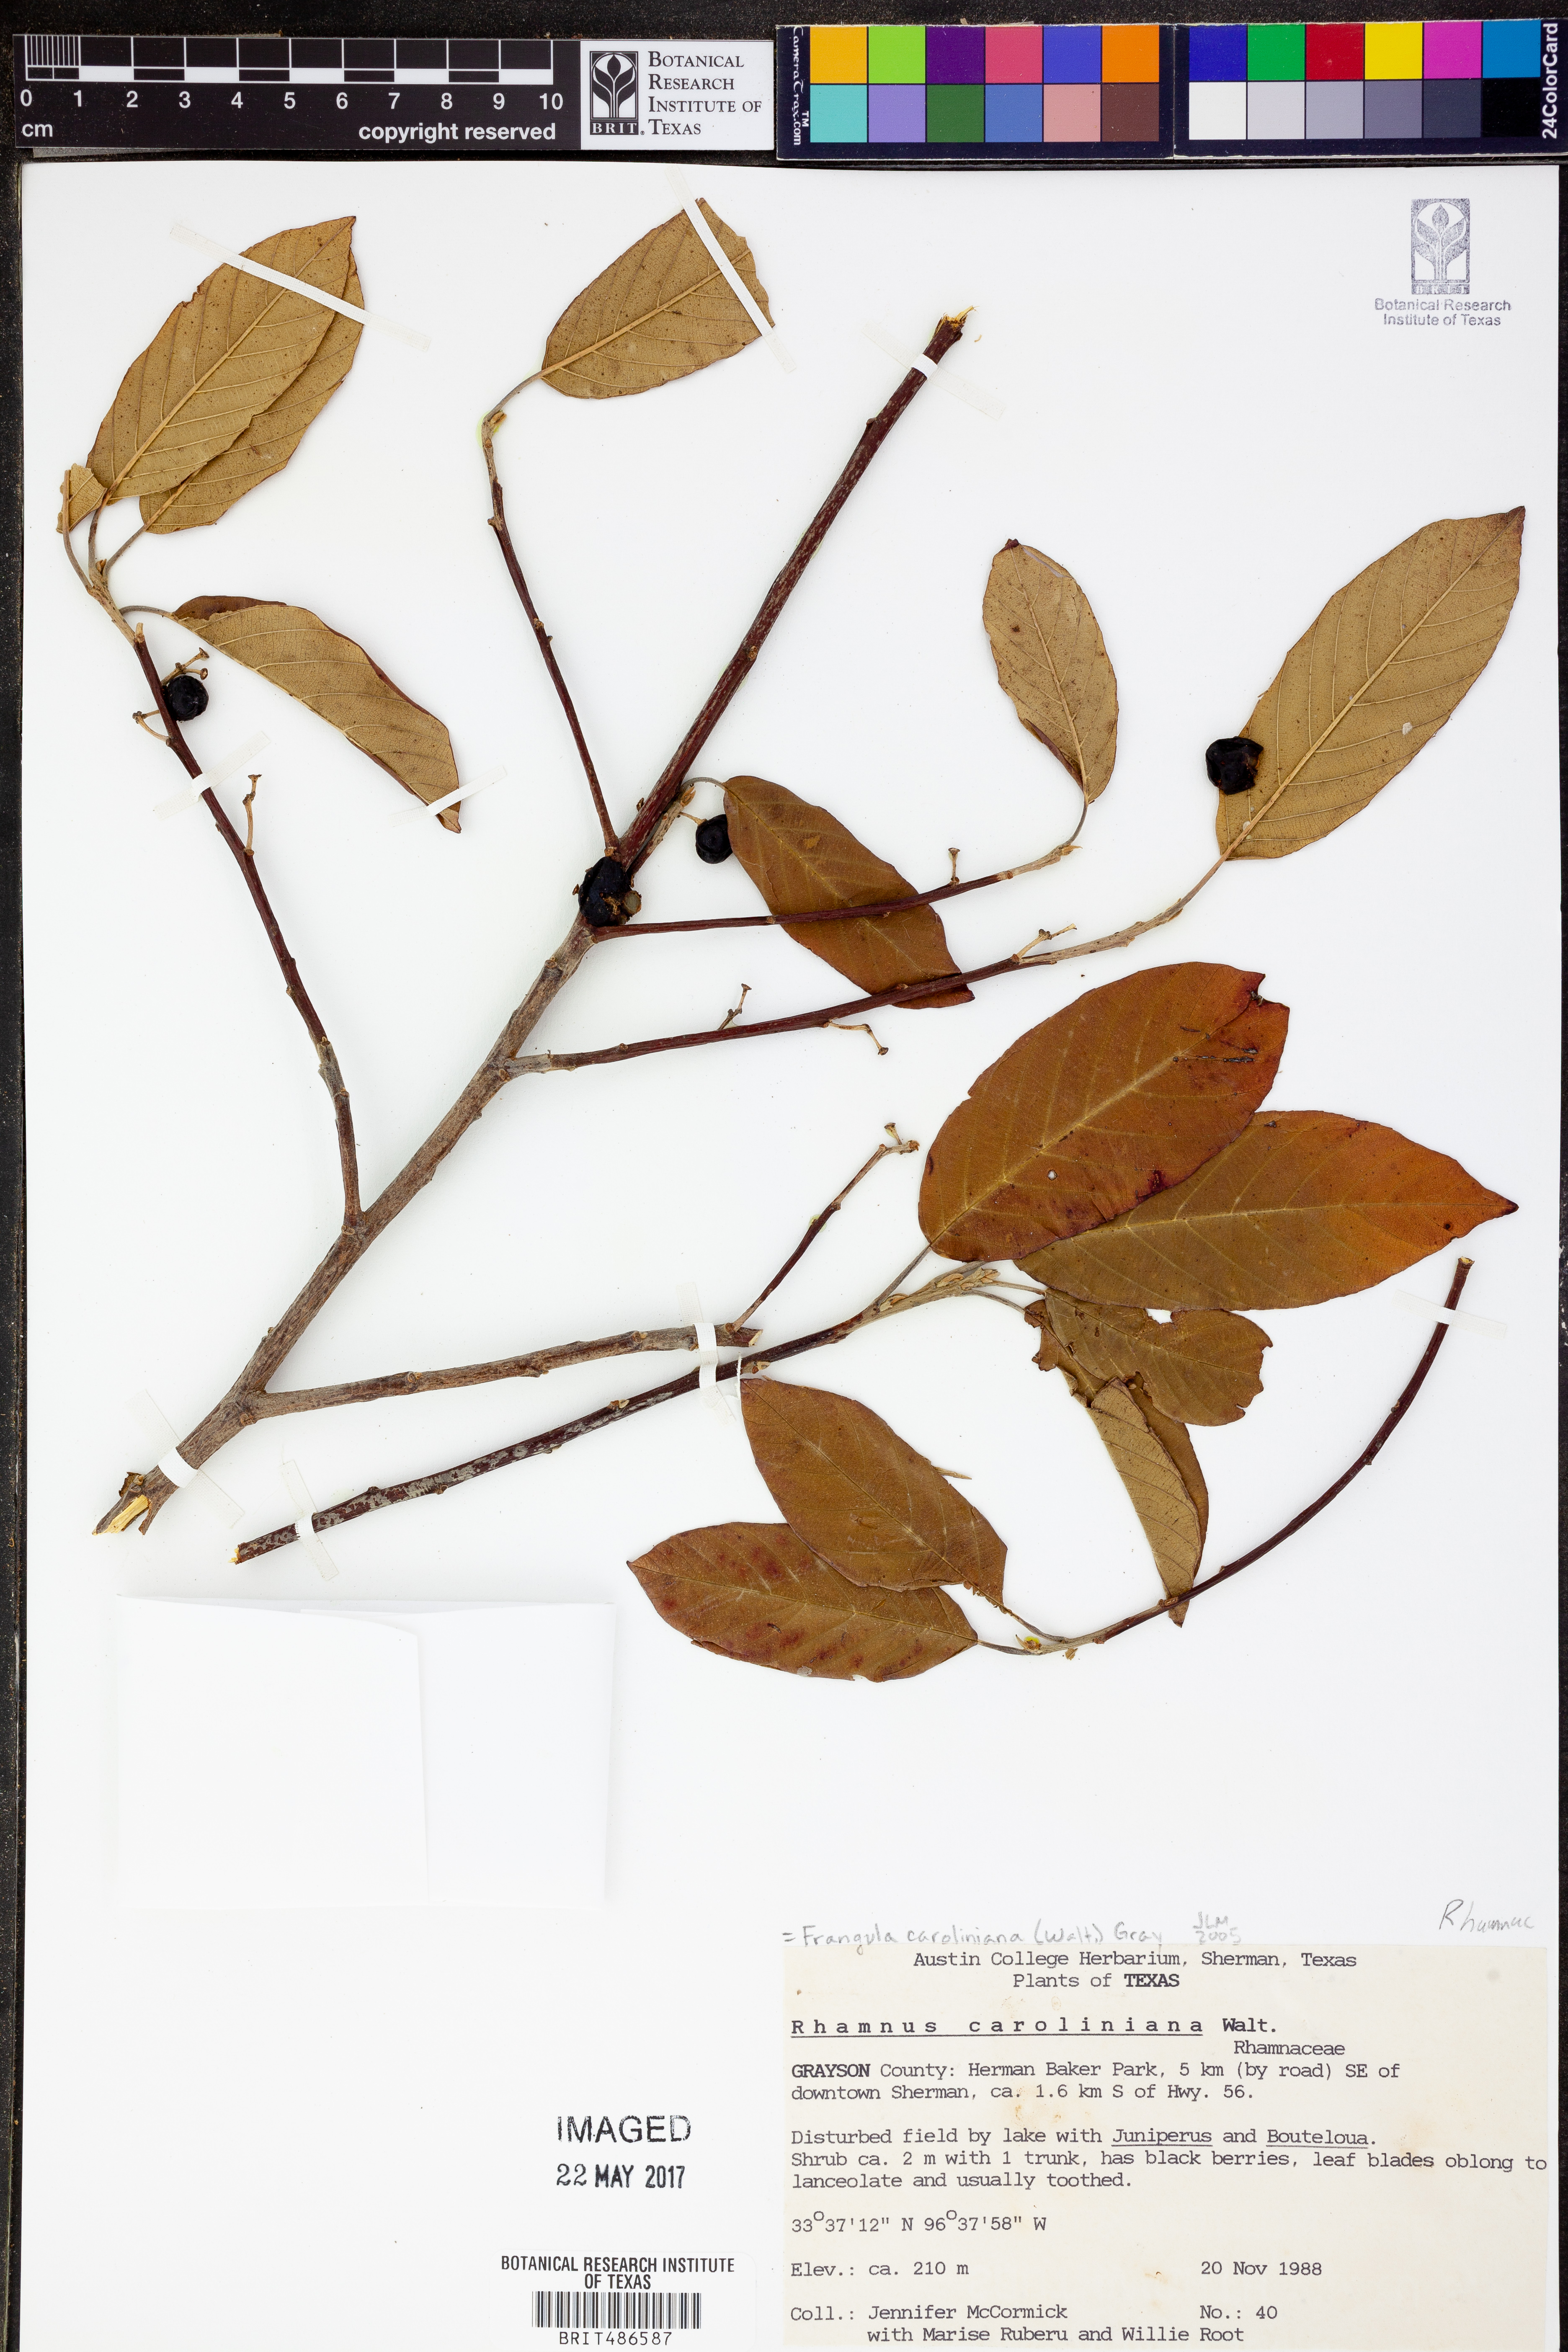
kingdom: Plantae
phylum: Tracheophyta
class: Magnoliopsida
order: Rosales
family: Rhamnaceae
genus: Frangula
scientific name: Frangula caroliniana
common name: Carolina buckthorn
